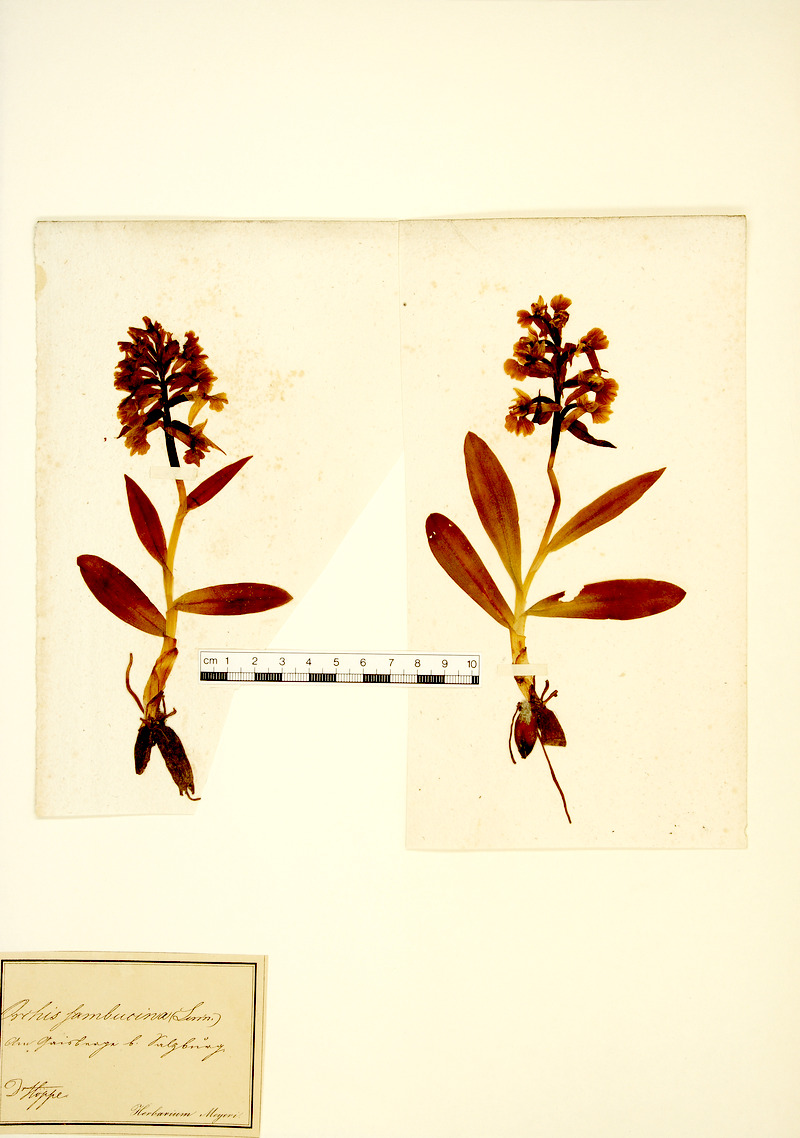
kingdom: Plantae
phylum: Tracheophyta
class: Liliopsida
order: Asparagales
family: Orchidaceae
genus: Dactylorhiza
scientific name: Dactylorhiza sambucina
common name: Elder-flowered orchid
